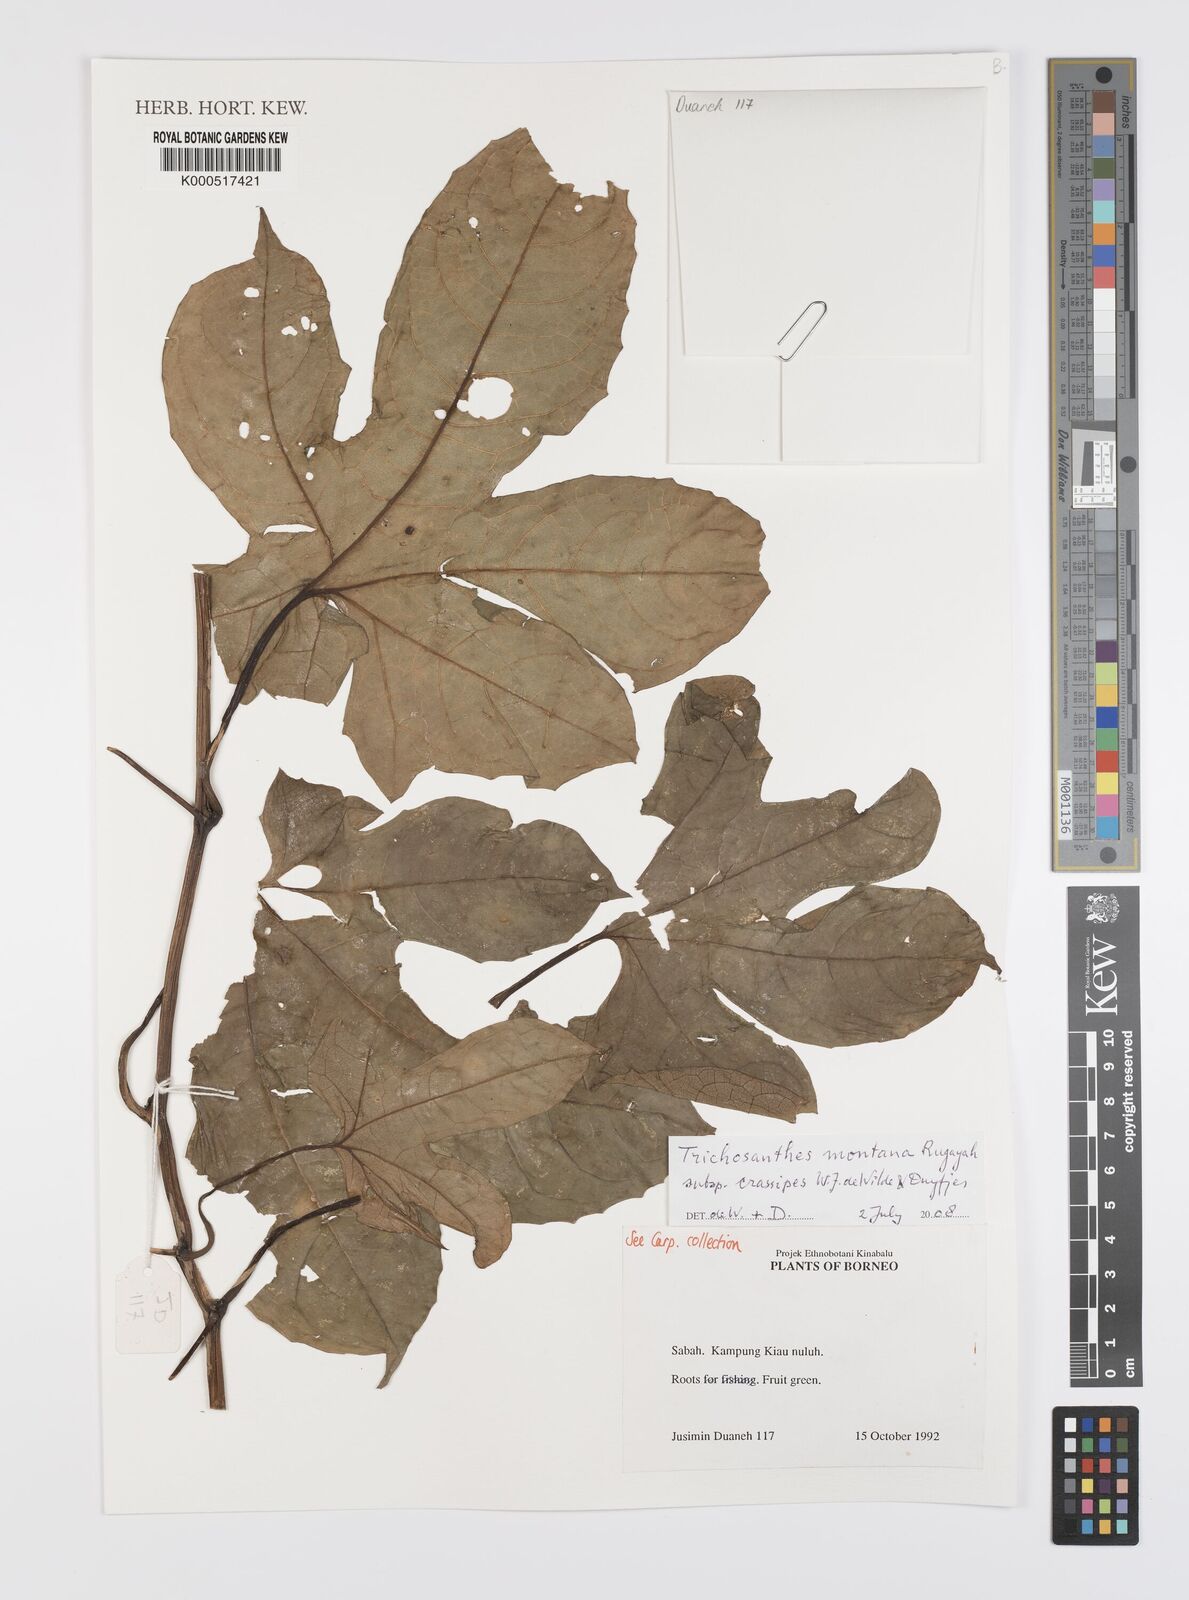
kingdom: Plantae
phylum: Tracheophyta
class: Magnoliopsida
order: Cucurbitales
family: Cucurbitaceae
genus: Trichosanthes
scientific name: Trichosanthes montana
